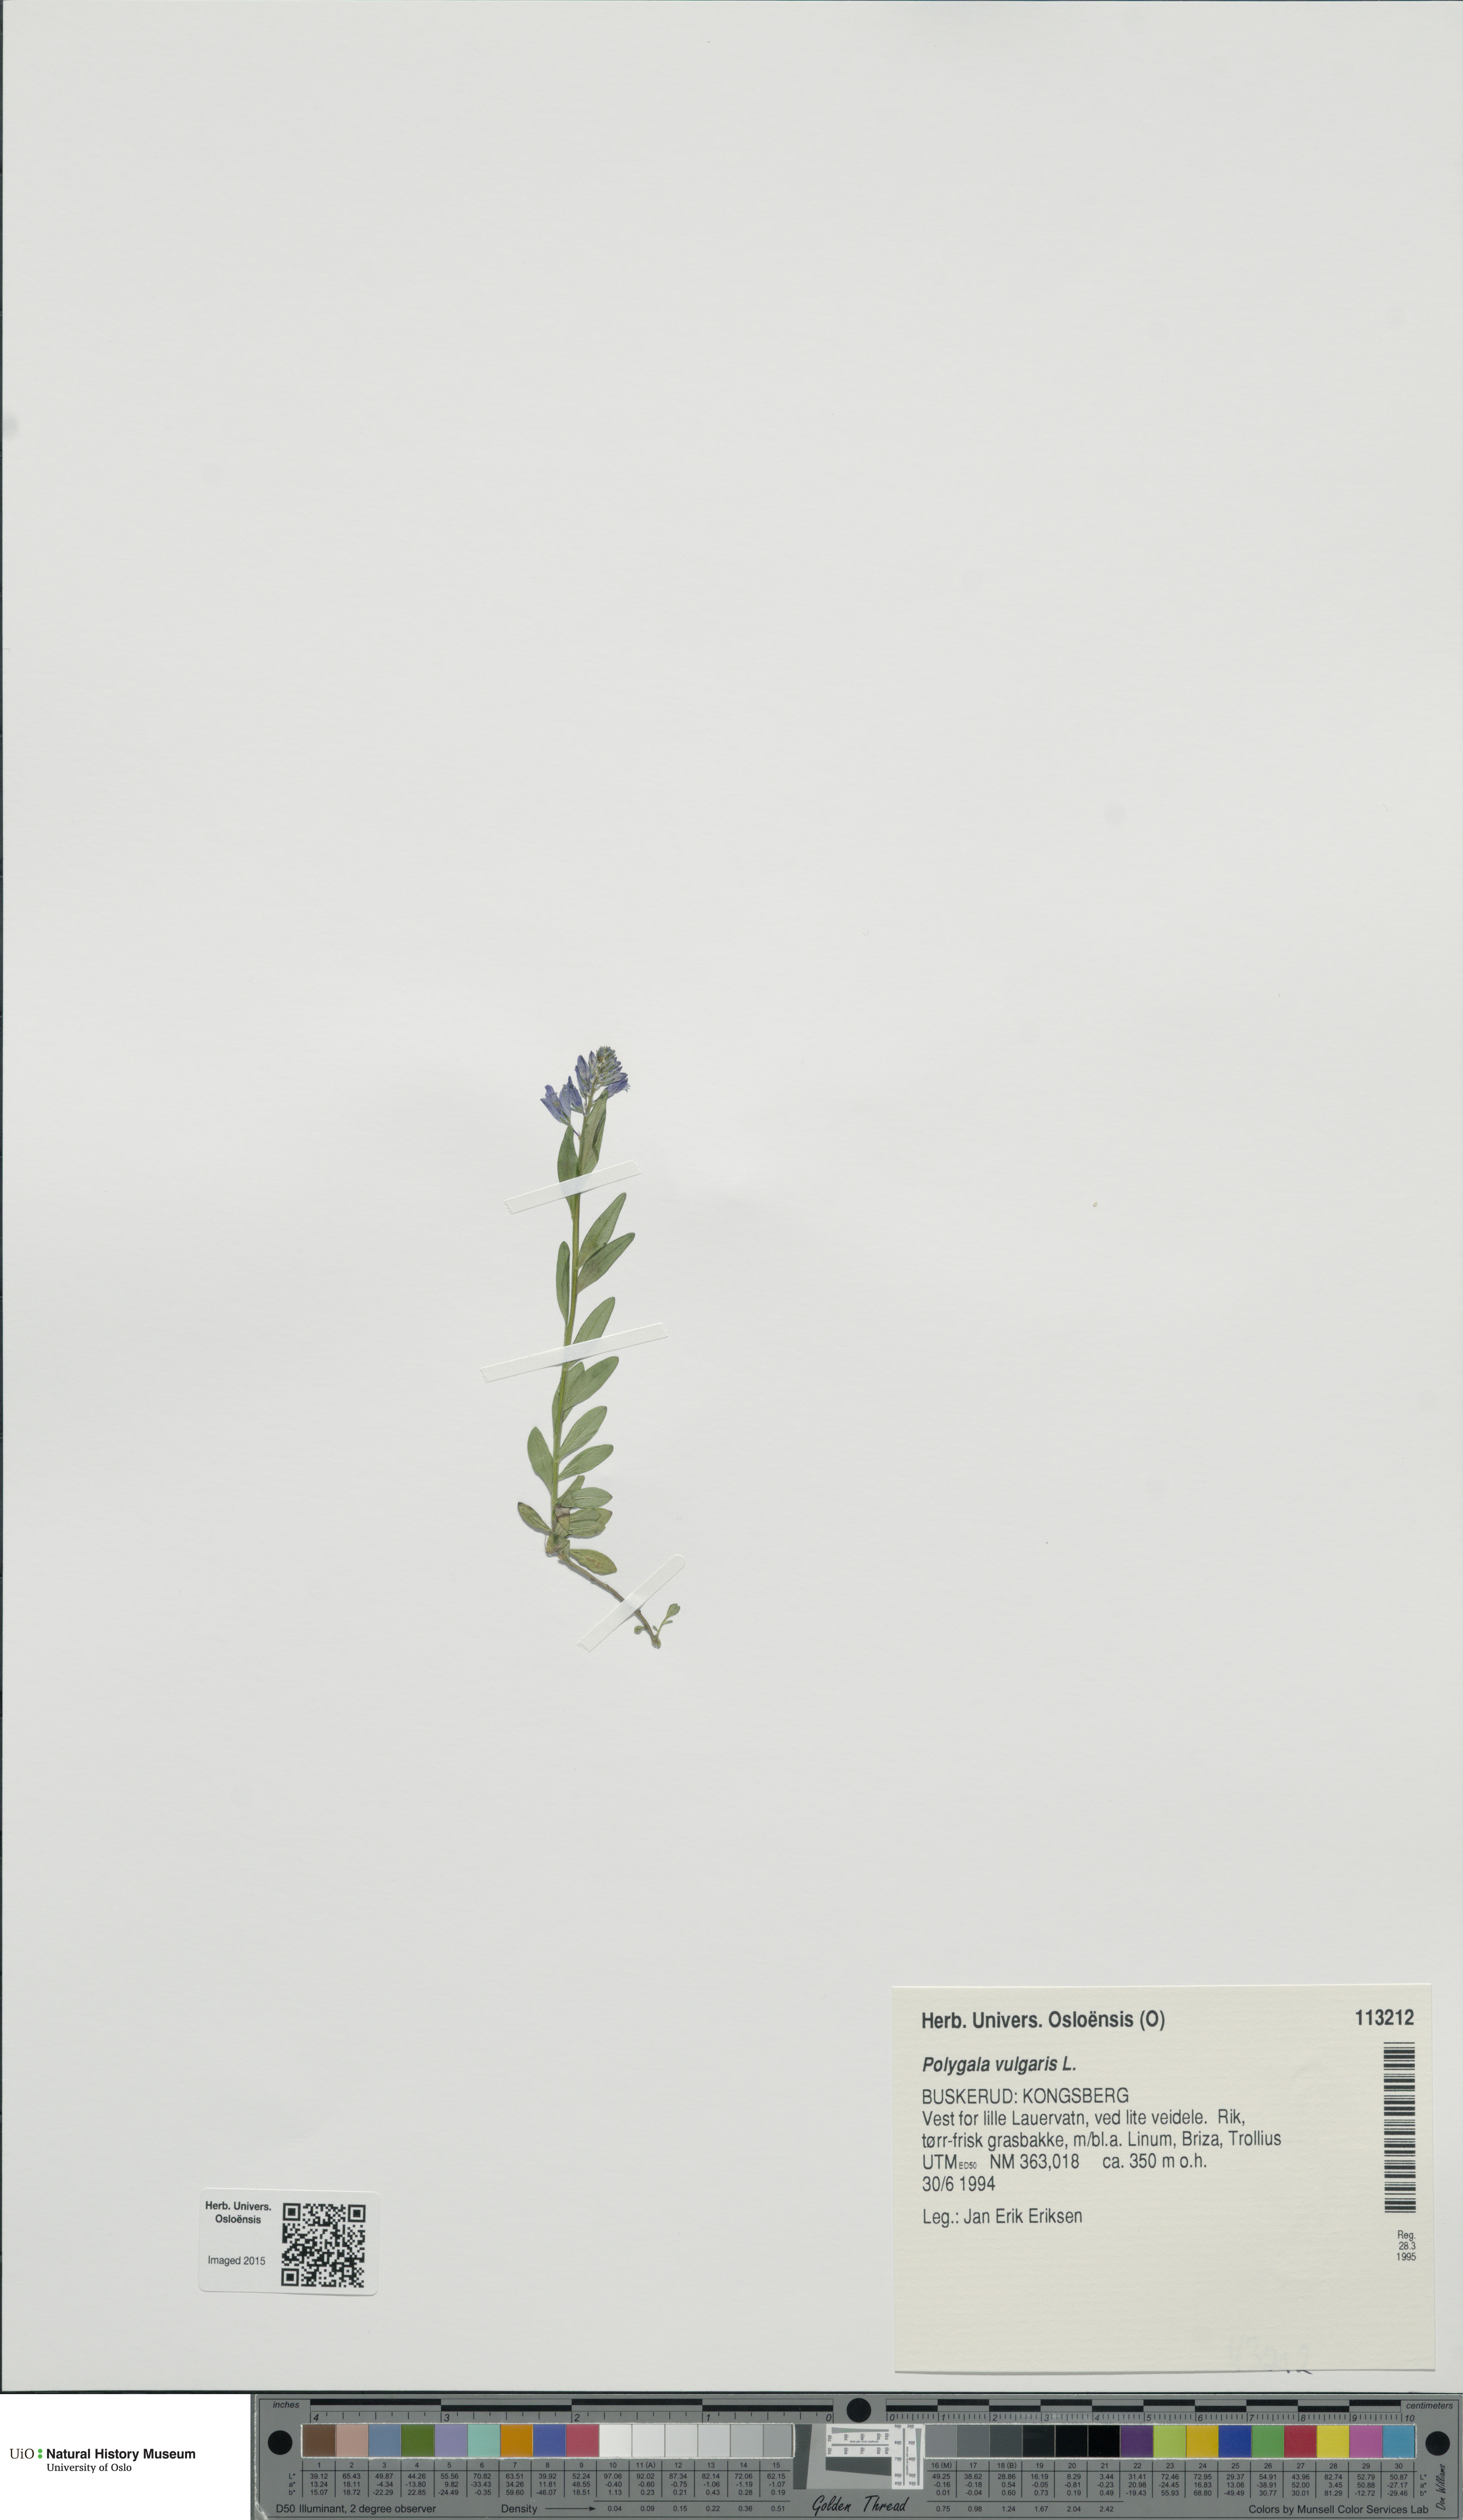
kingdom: Plantae
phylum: Tracheophyta
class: Magnoliopsida
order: Fabales
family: Polygalaceae
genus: Polygala
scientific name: Polygala vulgaris
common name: Common milkwort
